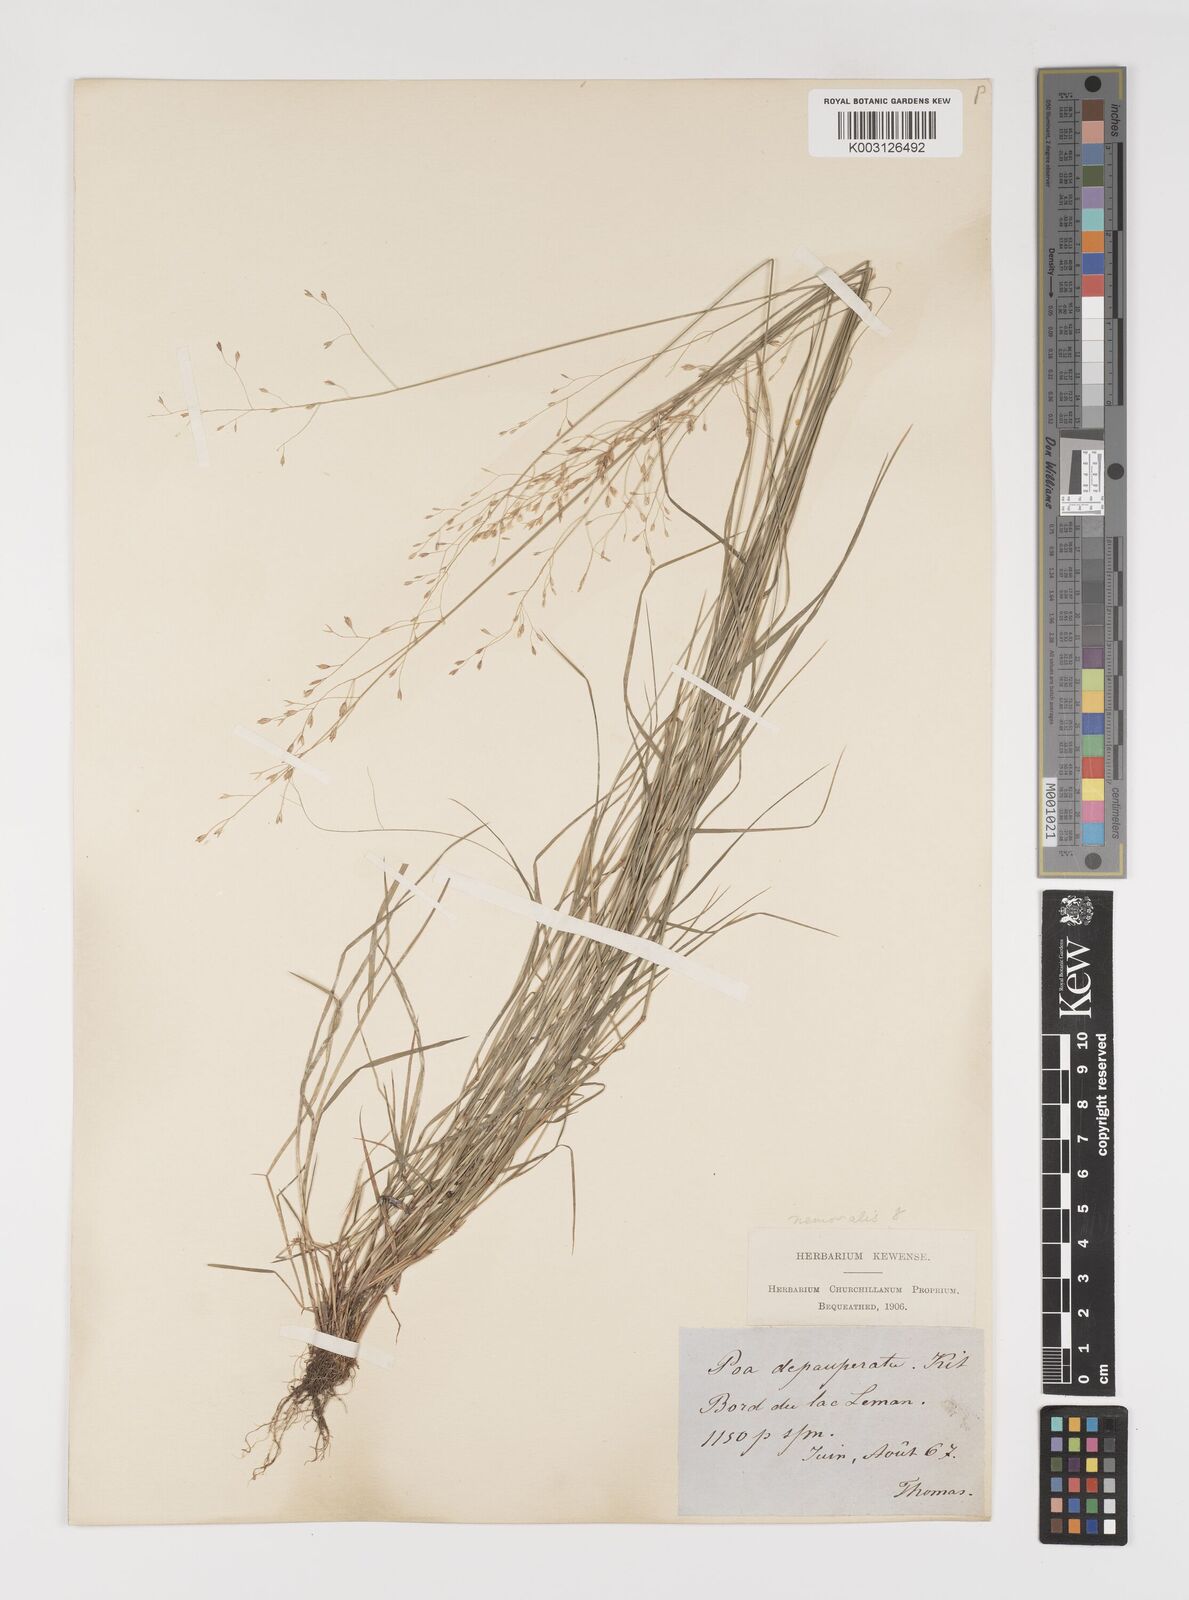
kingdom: Plantae
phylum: Tracheophyta
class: Liliopsida
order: Poales
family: Poaceae
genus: Poa
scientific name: Poa nemoralis
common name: Wood bluegrass
